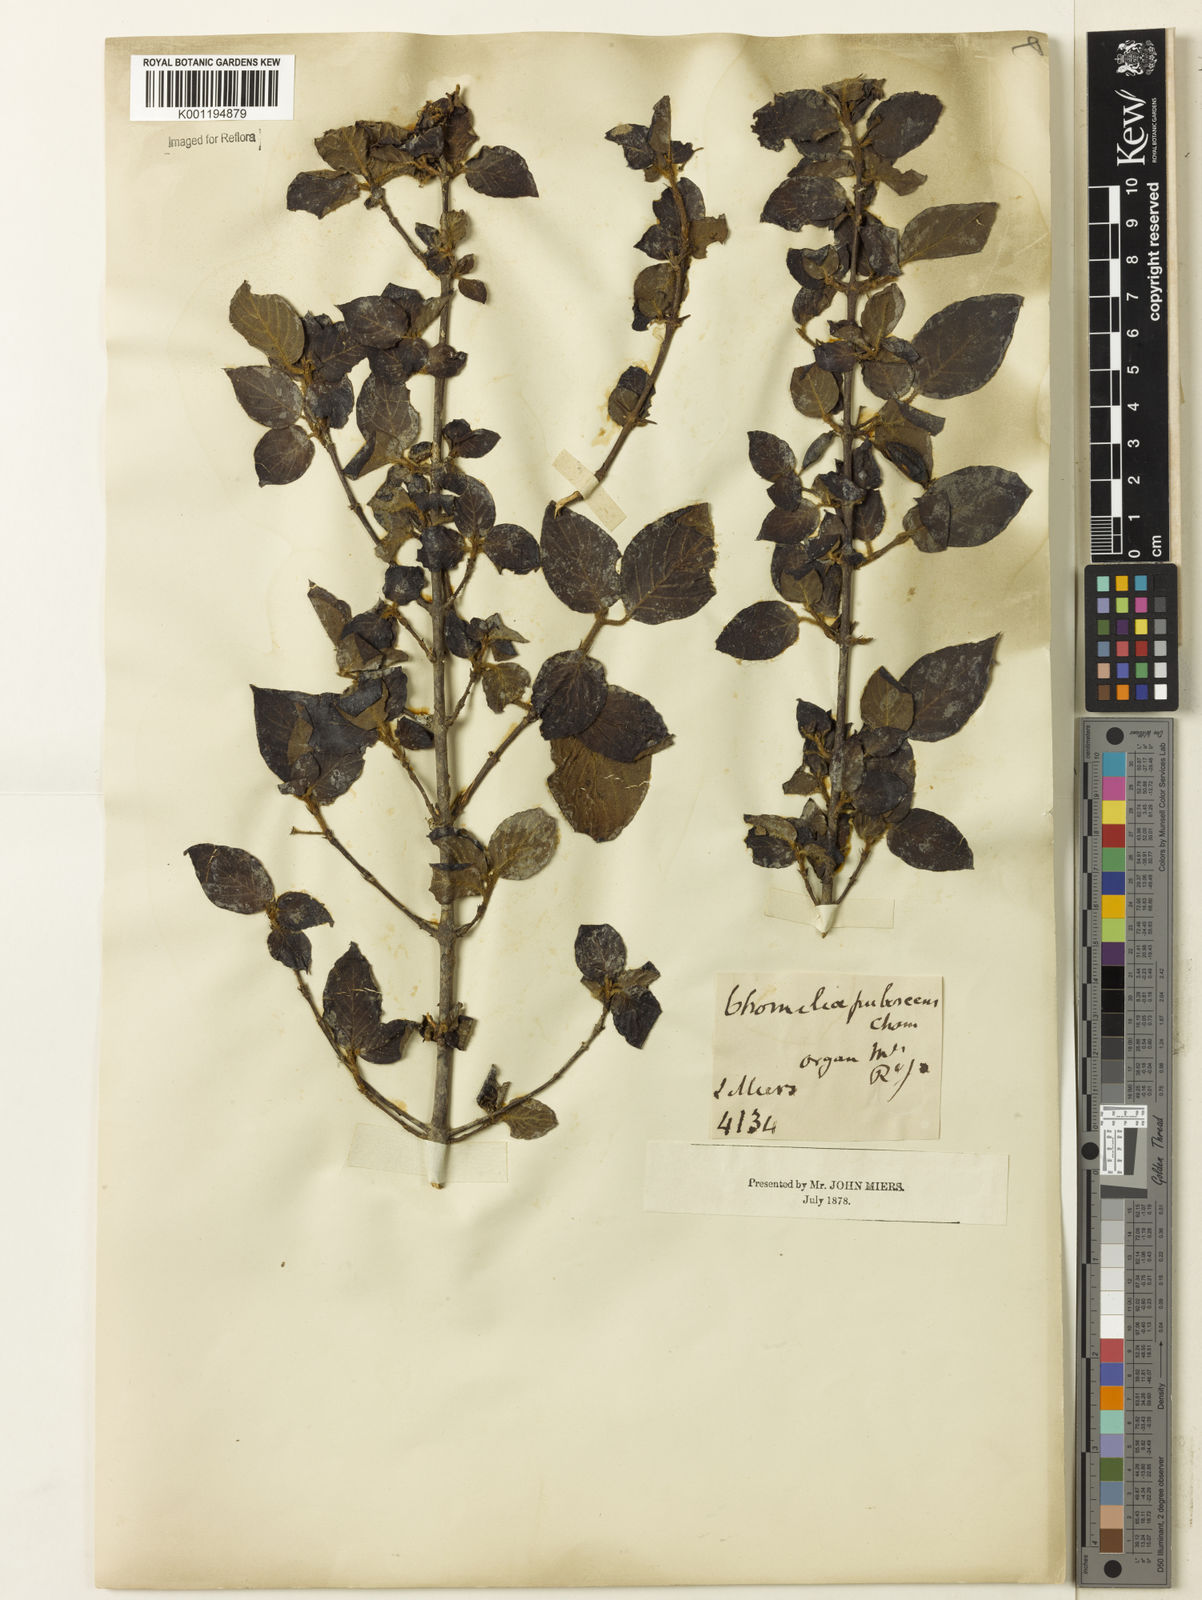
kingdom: Plantae
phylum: Tracheophyta
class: Magnoliopsida
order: Gentianales
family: Rubiaceae
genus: Chomelia
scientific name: Chomelia pubescens
